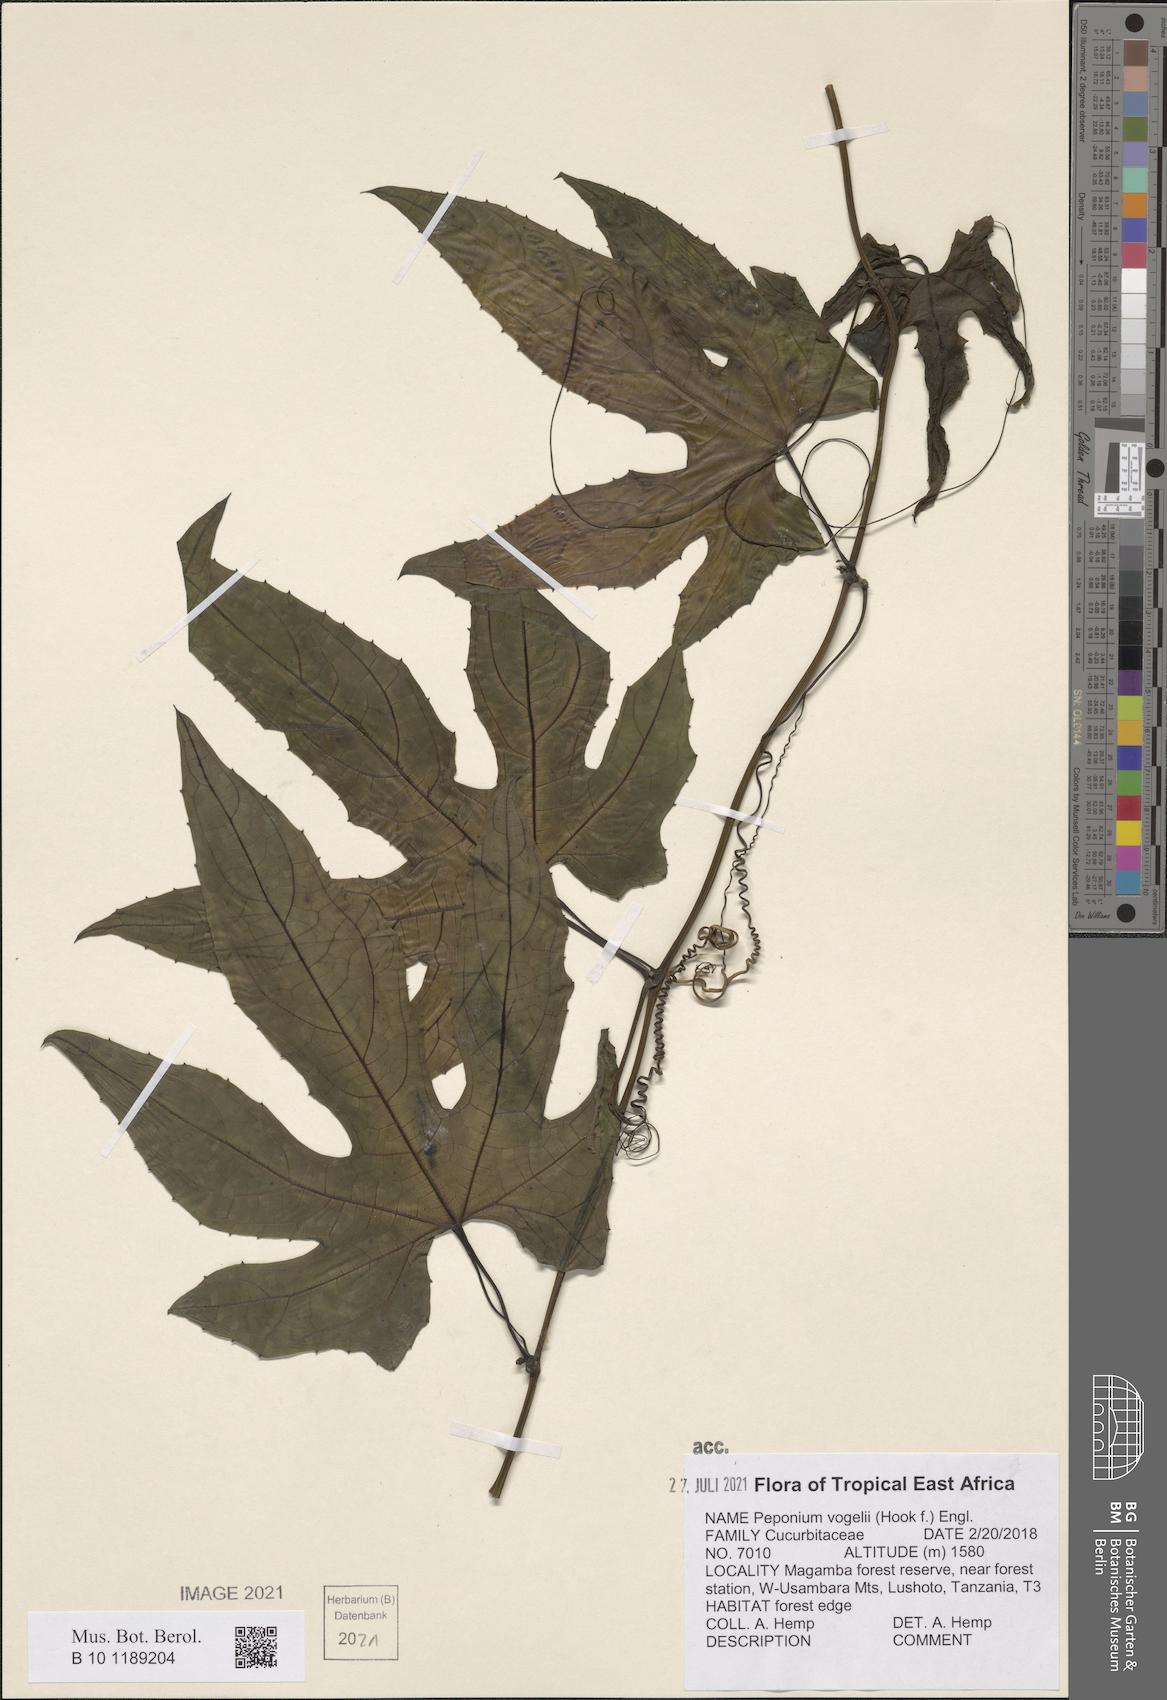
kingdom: Plantae
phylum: Tracheophyta
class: Magnoliopsida
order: Cucurbitales
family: Cucurbitaceae
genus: Peponium
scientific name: Peponium vogelii
